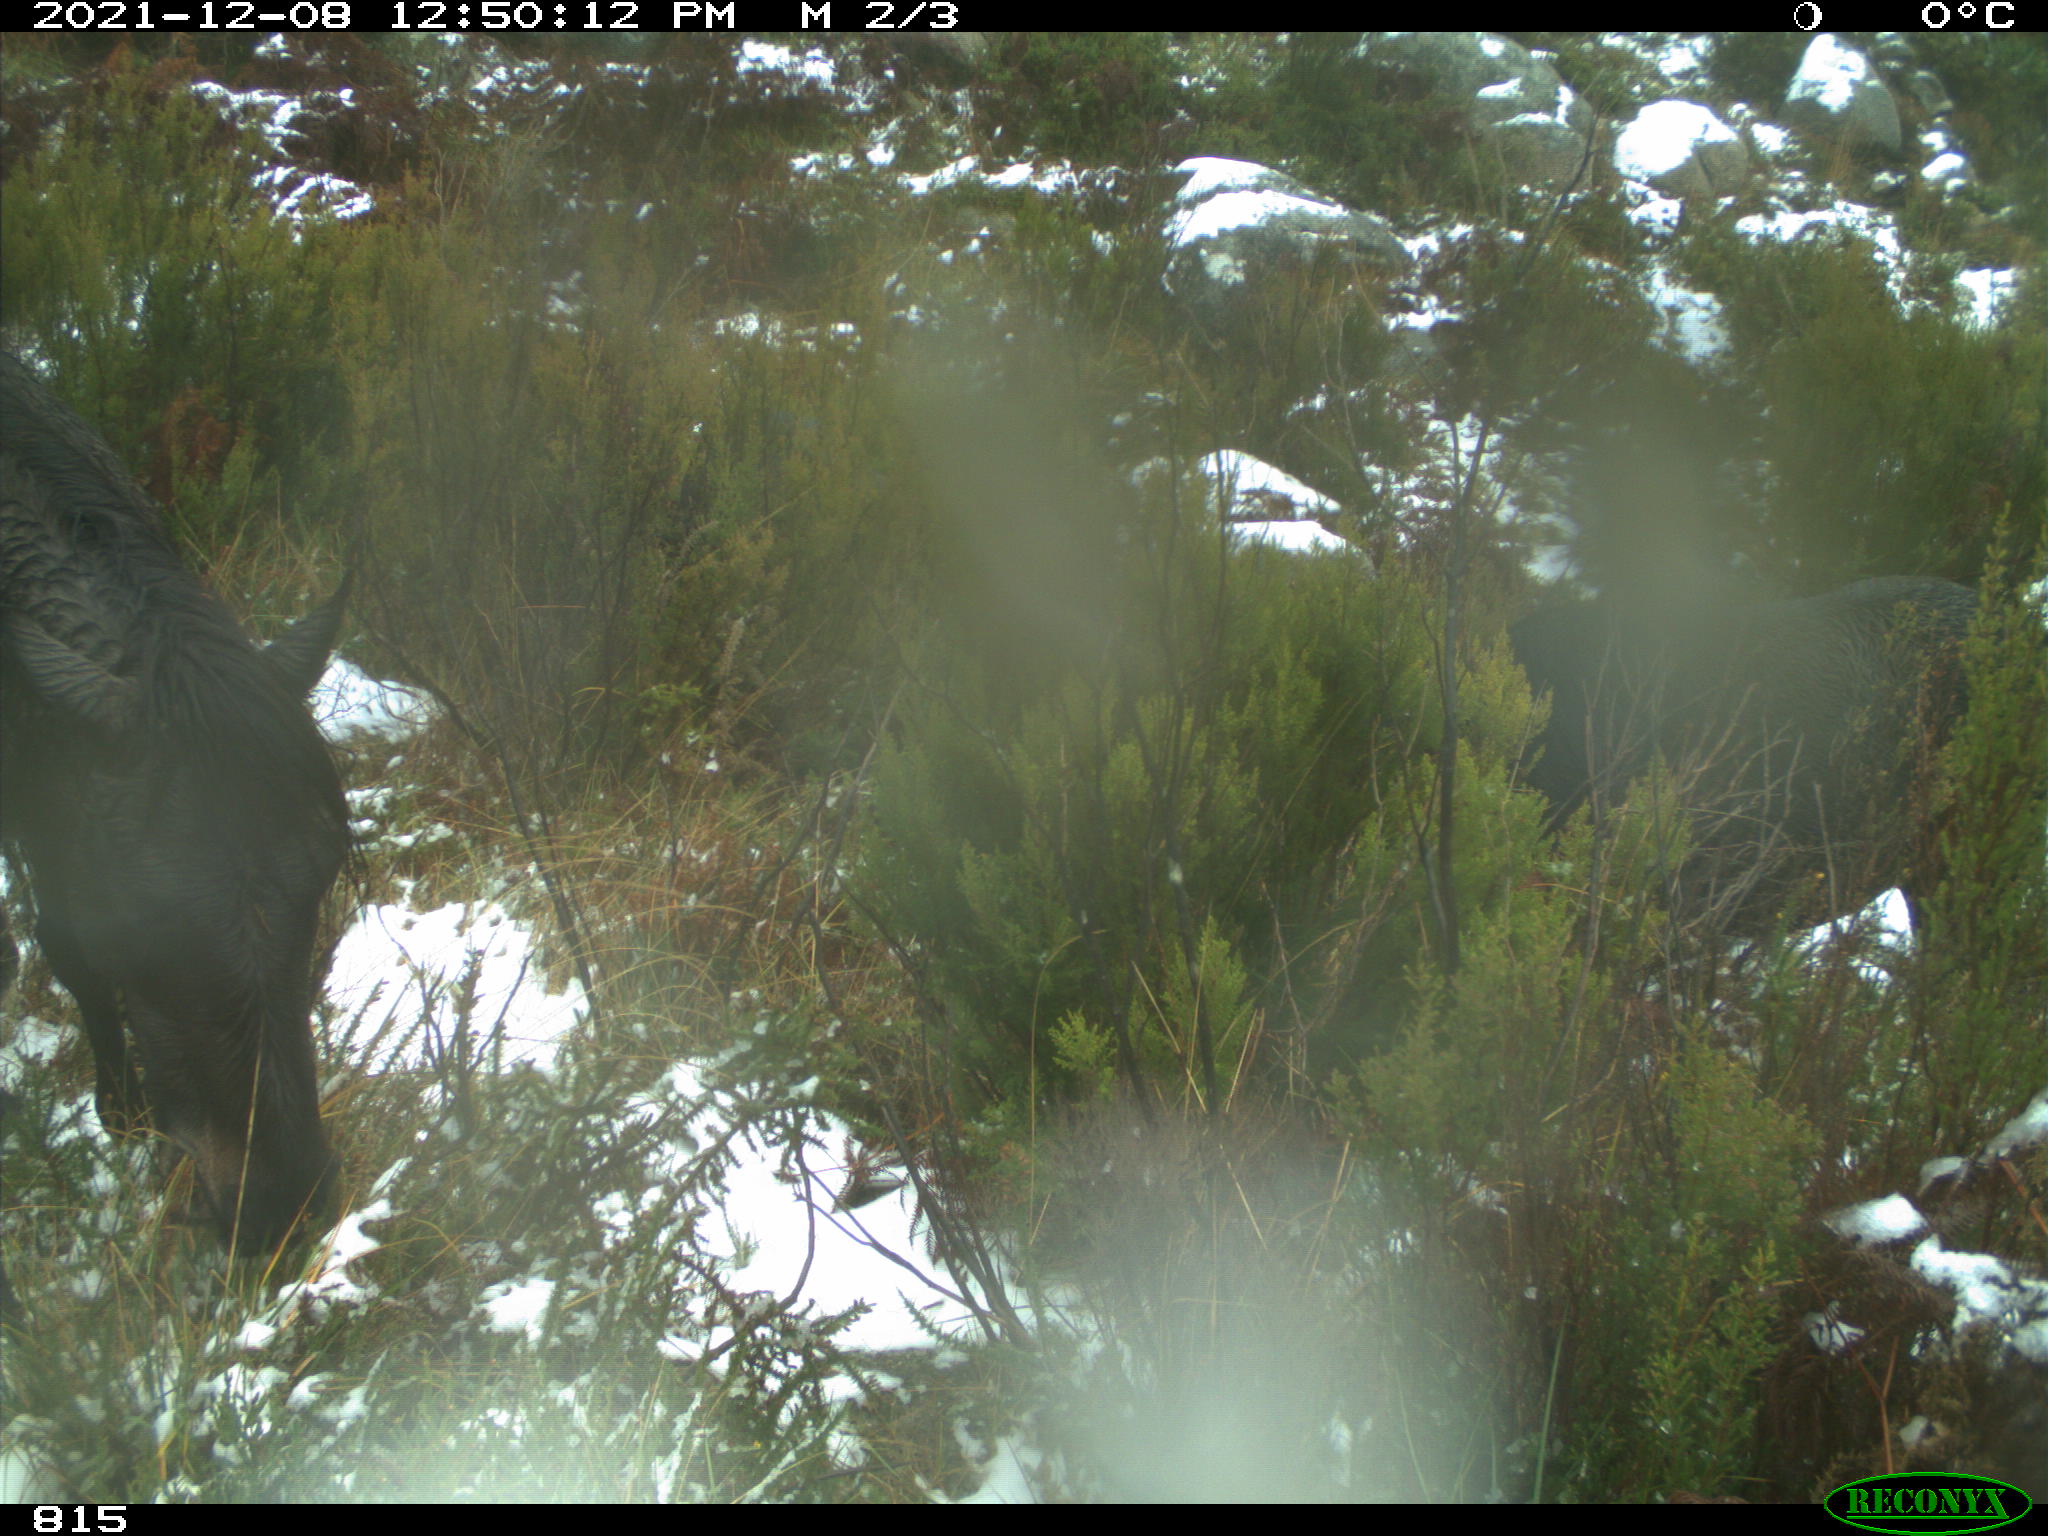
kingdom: Animalia
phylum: Chordata
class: Mammalia
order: Perissodactyla
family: Equidae
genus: Equus
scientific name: Equus caballus
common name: Horse
